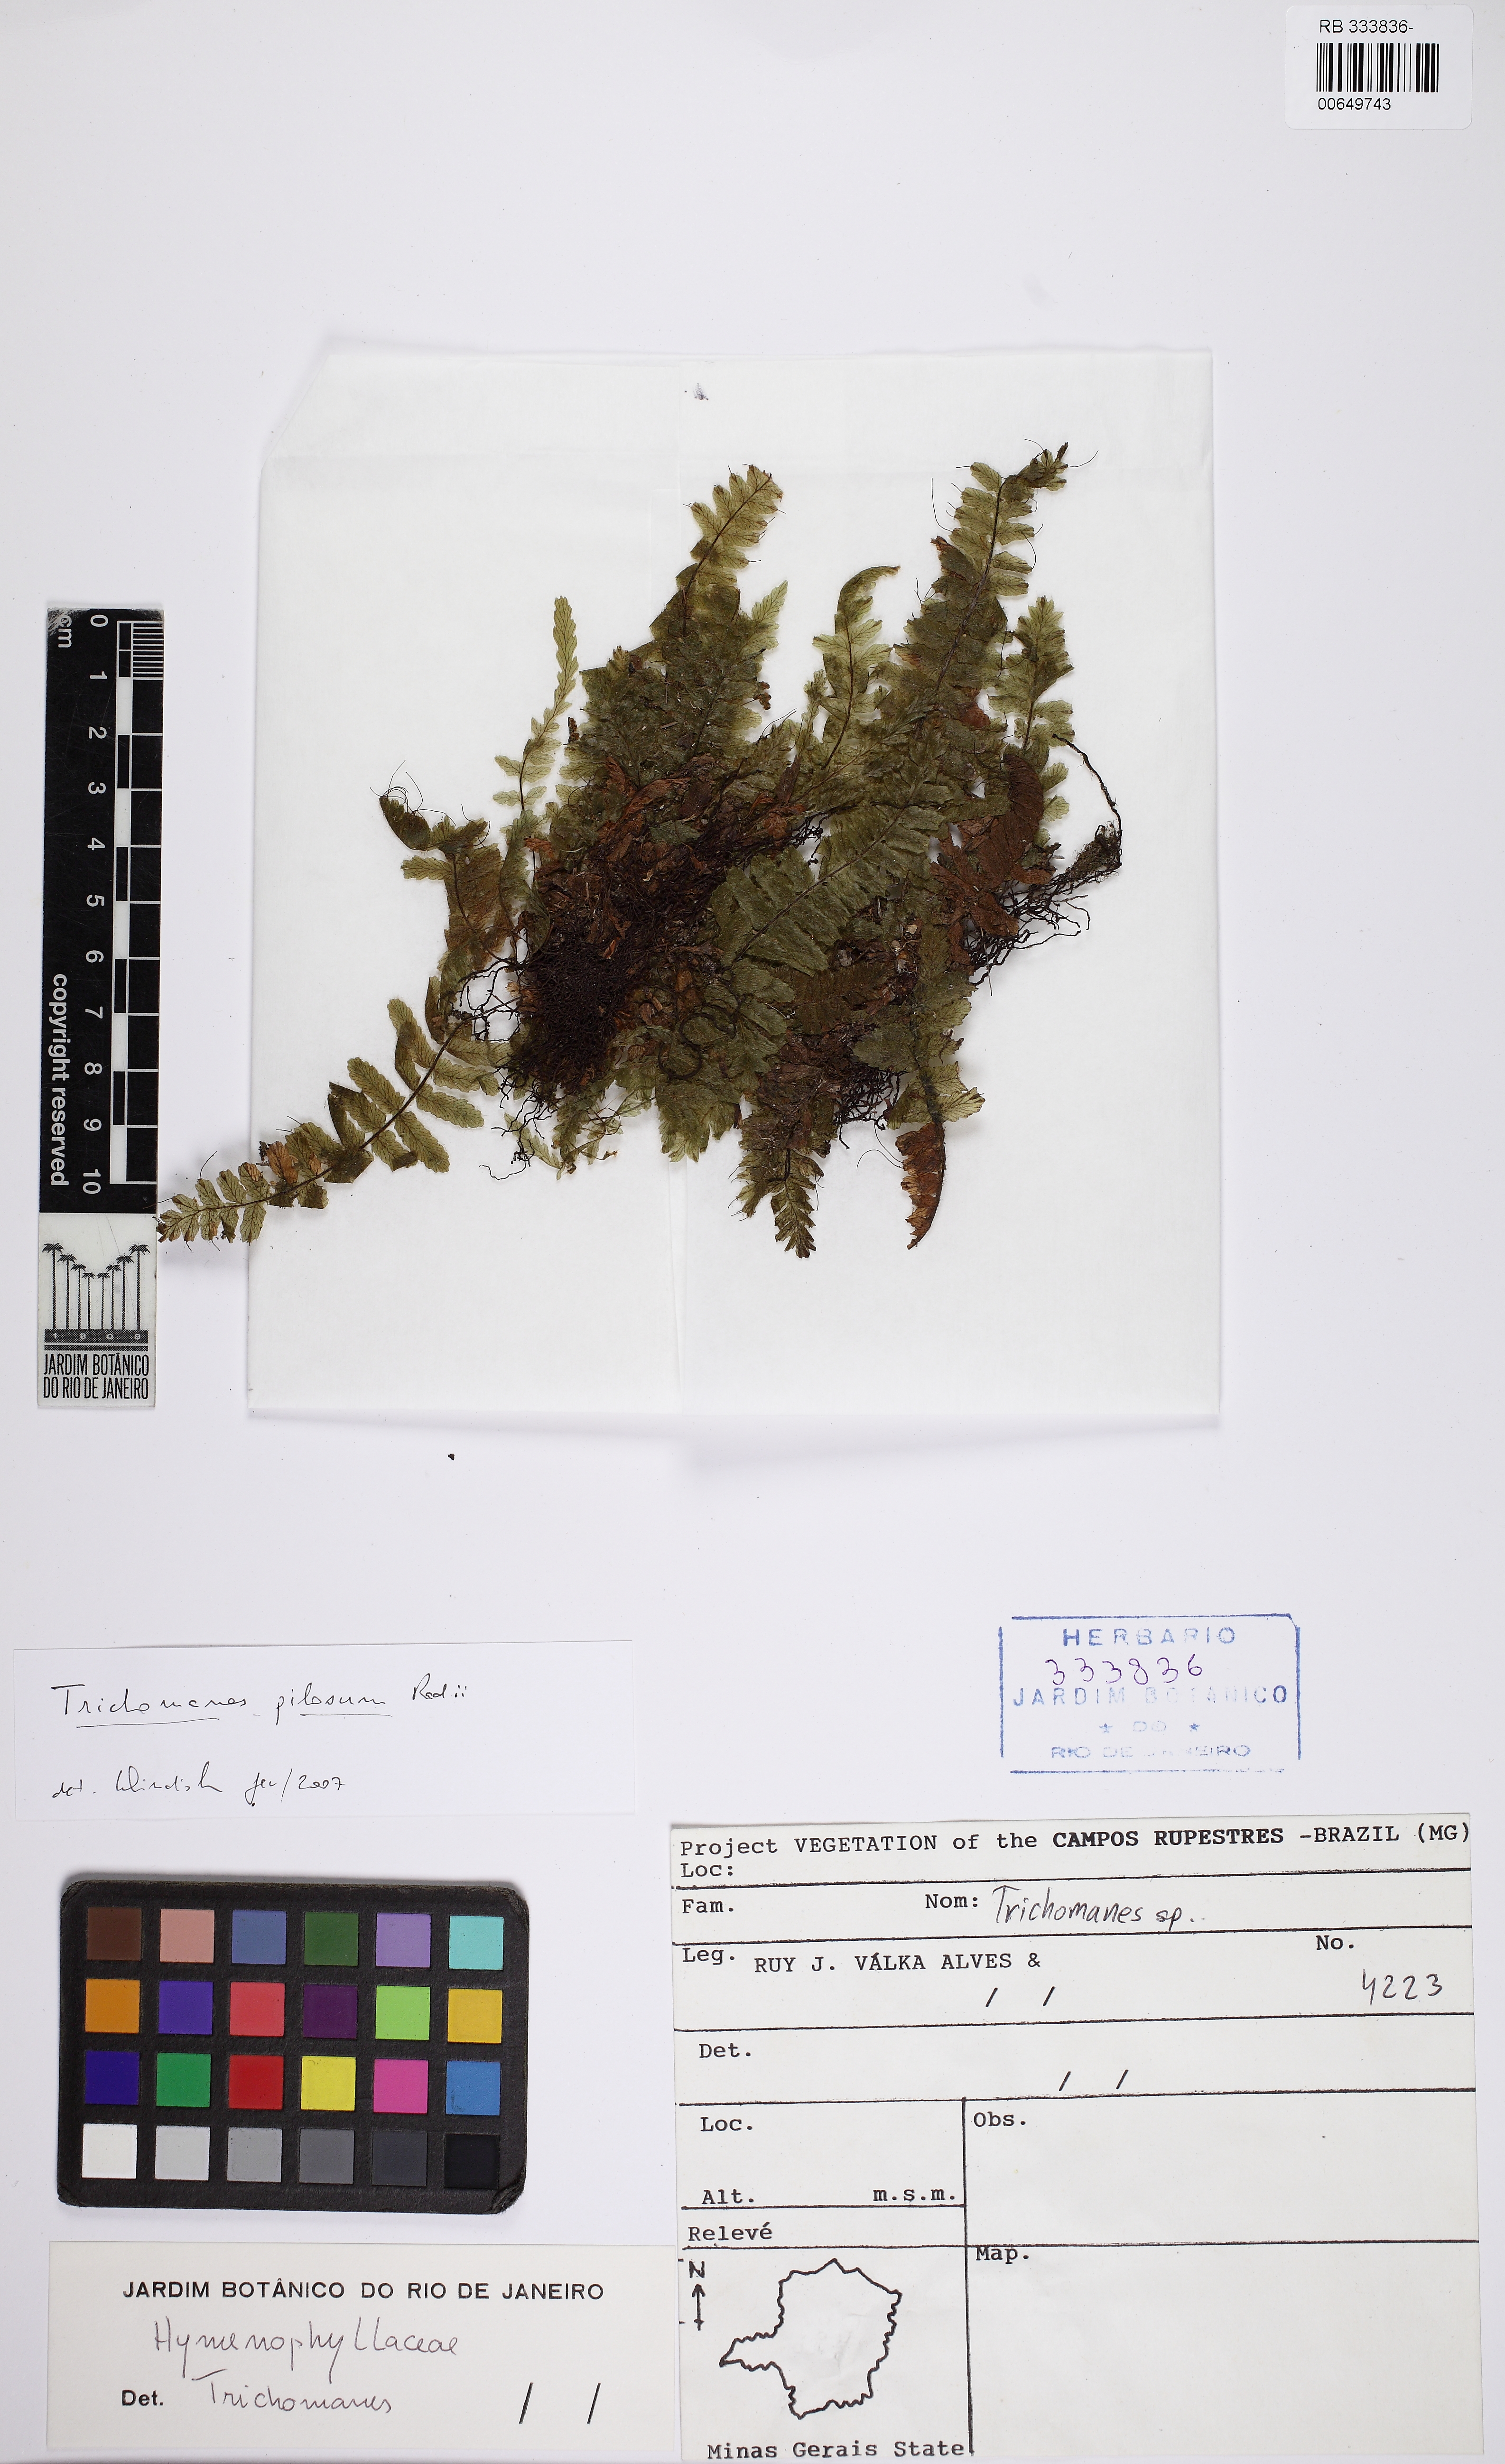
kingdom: Plantae
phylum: Tracheophyta
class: Polypodiopsida
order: Hymenophyllales
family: Hymenophyllaceae
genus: Trichomanes
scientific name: Trichomanes pilosum
